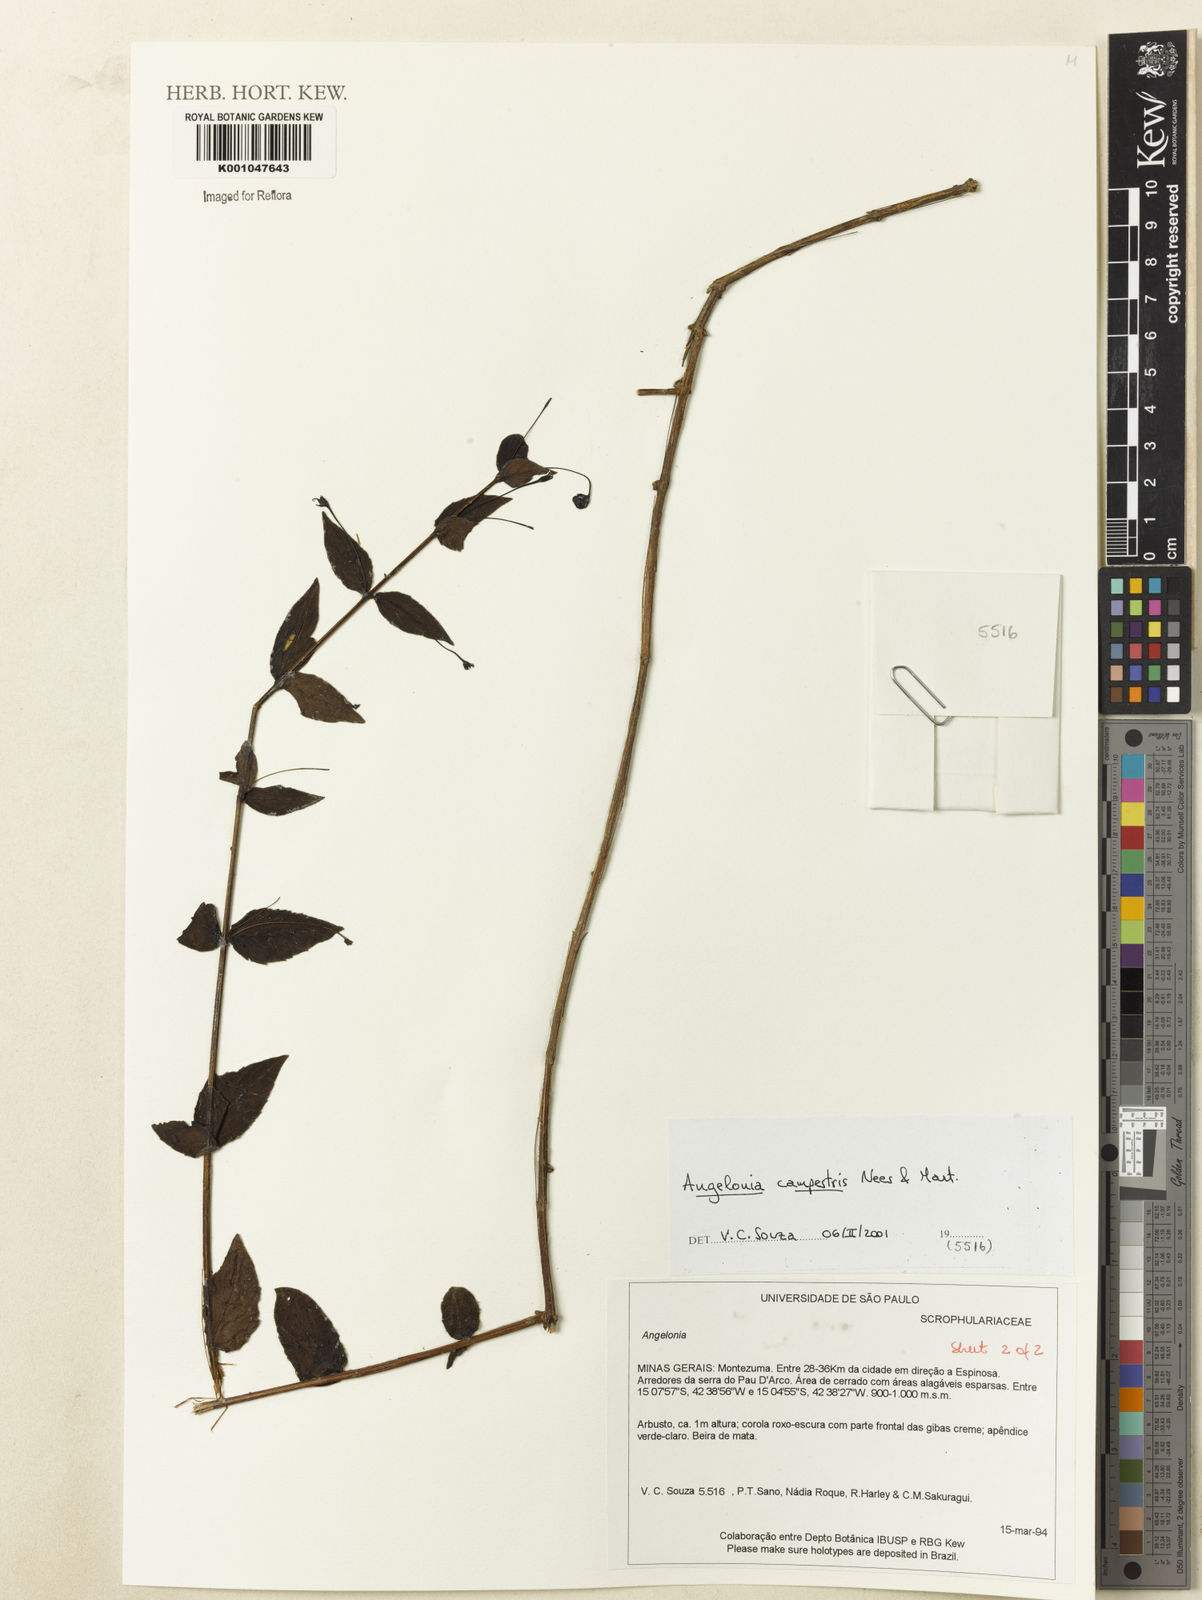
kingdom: Plantae
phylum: Tracheophyta
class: Magnoliopsida
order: Lamiales
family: Plantaginaceae
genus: Angelonia
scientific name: Angelonia campestris
